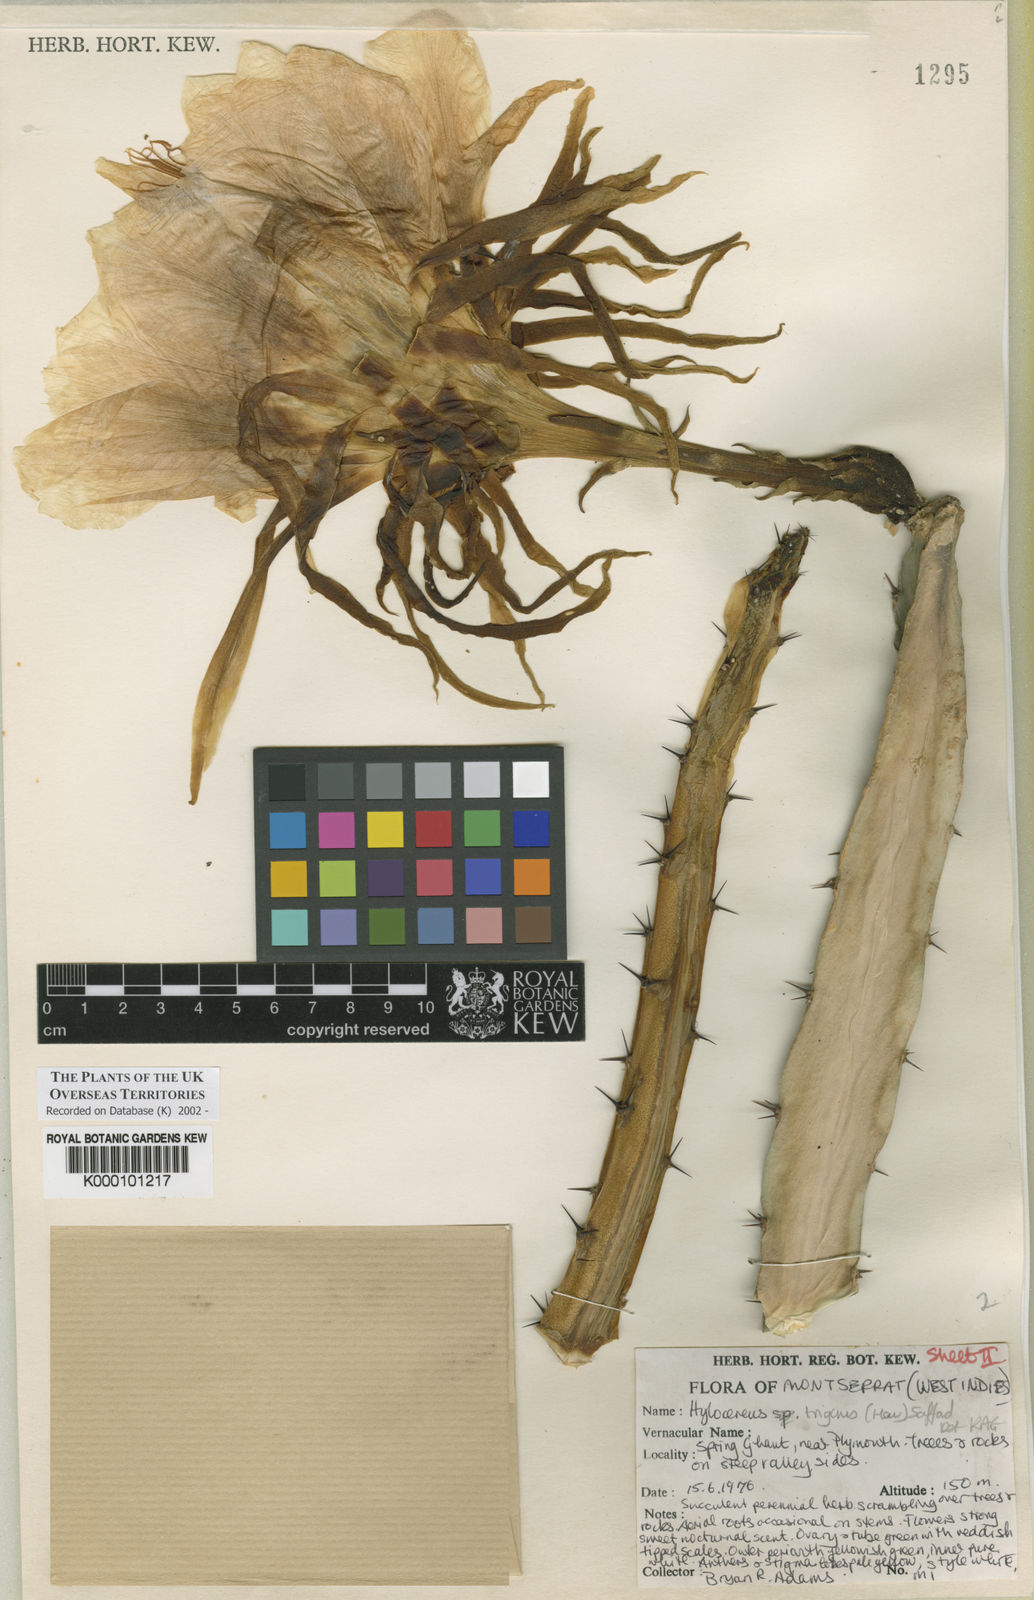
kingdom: Plantae
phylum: Tracheophyta
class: Magnoliopsida
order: Caryophyllales
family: Cactaceae
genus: Selenicereus
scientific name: Selenicereus triangularis
